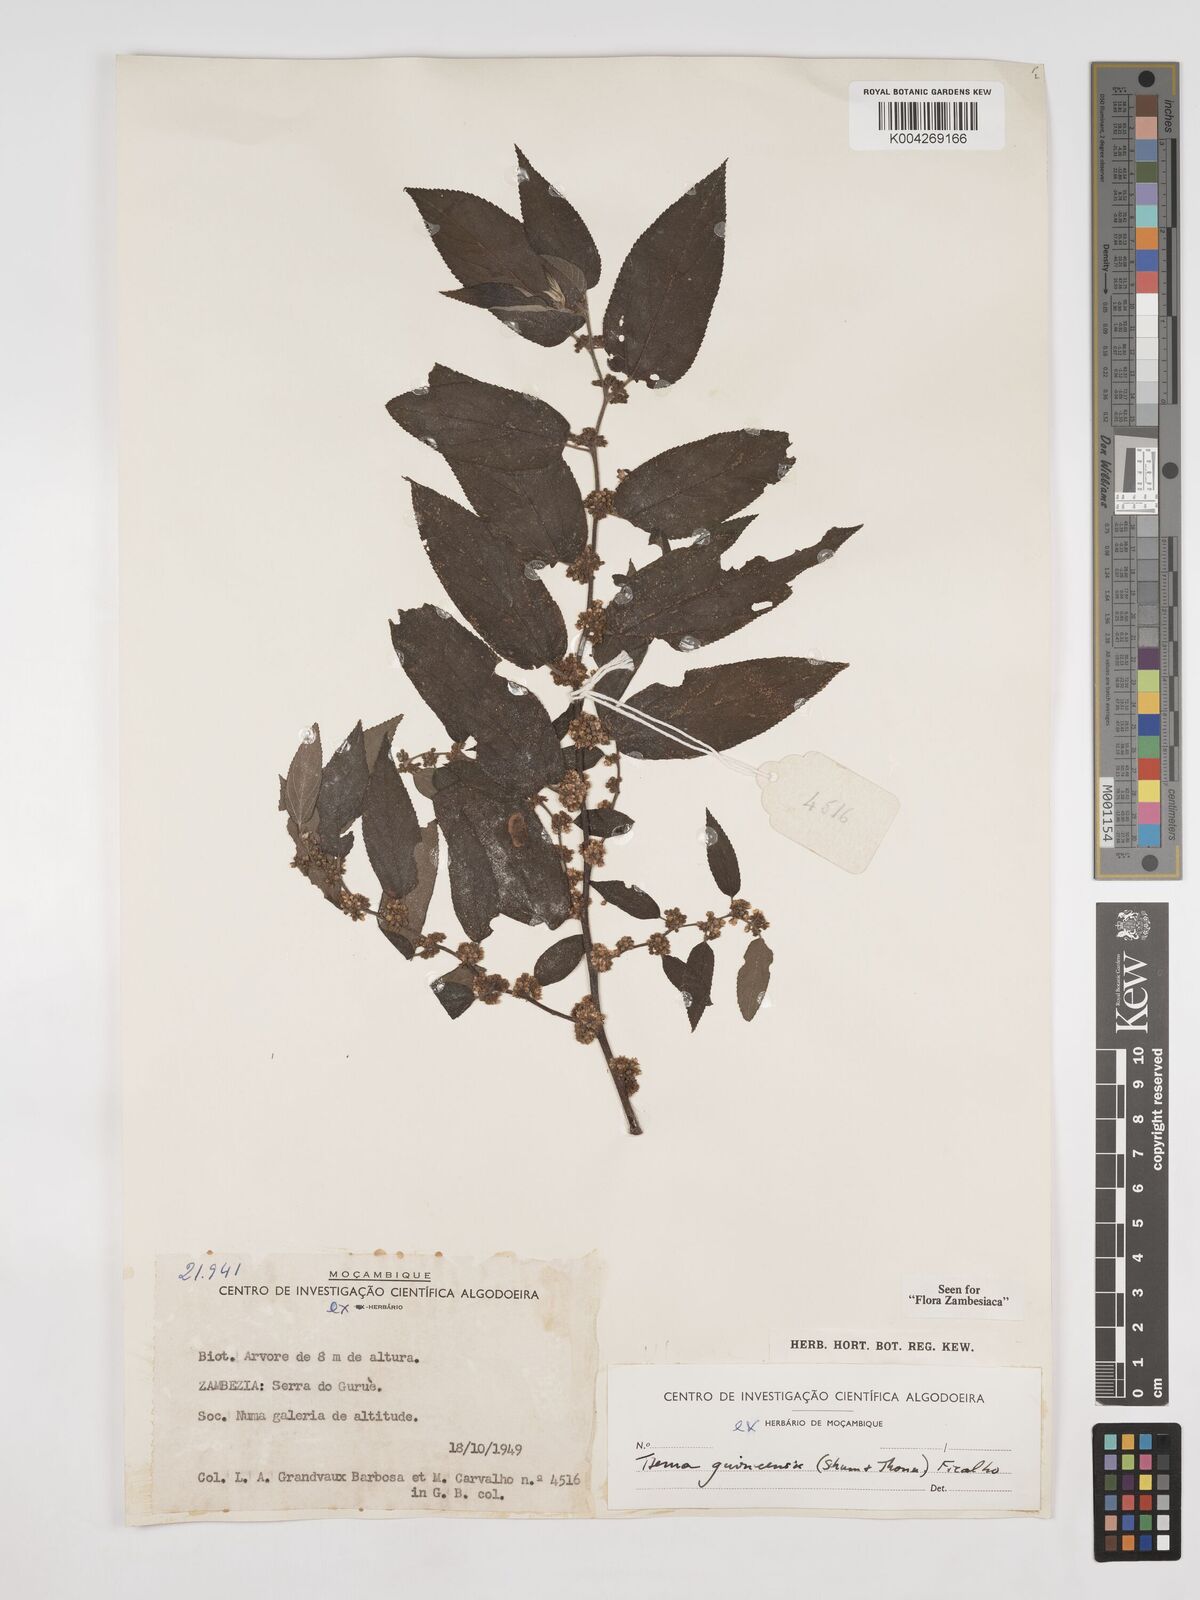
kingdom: Plantae
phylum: Tracheophyta
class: Magnoliopsida
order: Rosales
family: Cannabaceae
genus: Trema
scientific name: Trema orientale
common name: Indian charcoal tree
